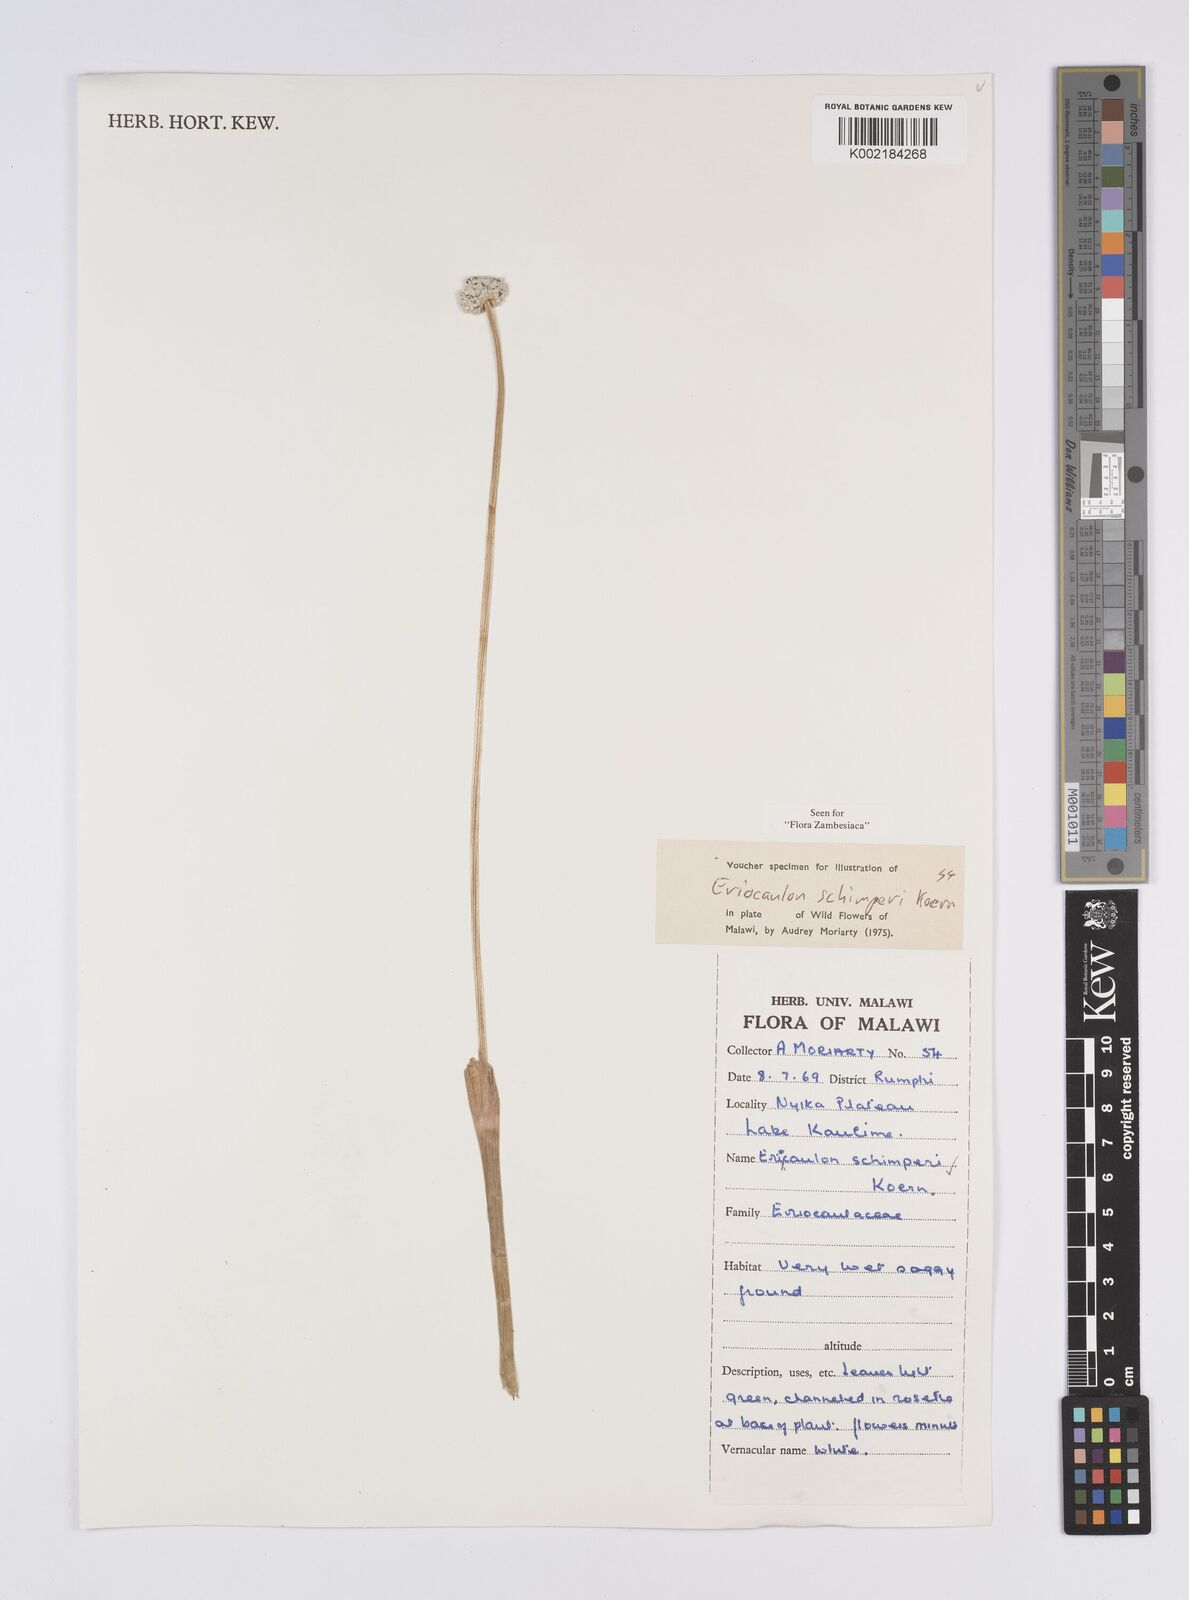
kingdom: Plantae
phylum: Tracheophyta
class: Liliopsida
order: Poales
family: Eriocaulaceae
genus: Eriocaulon
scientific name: Eriocaulon schimperi
